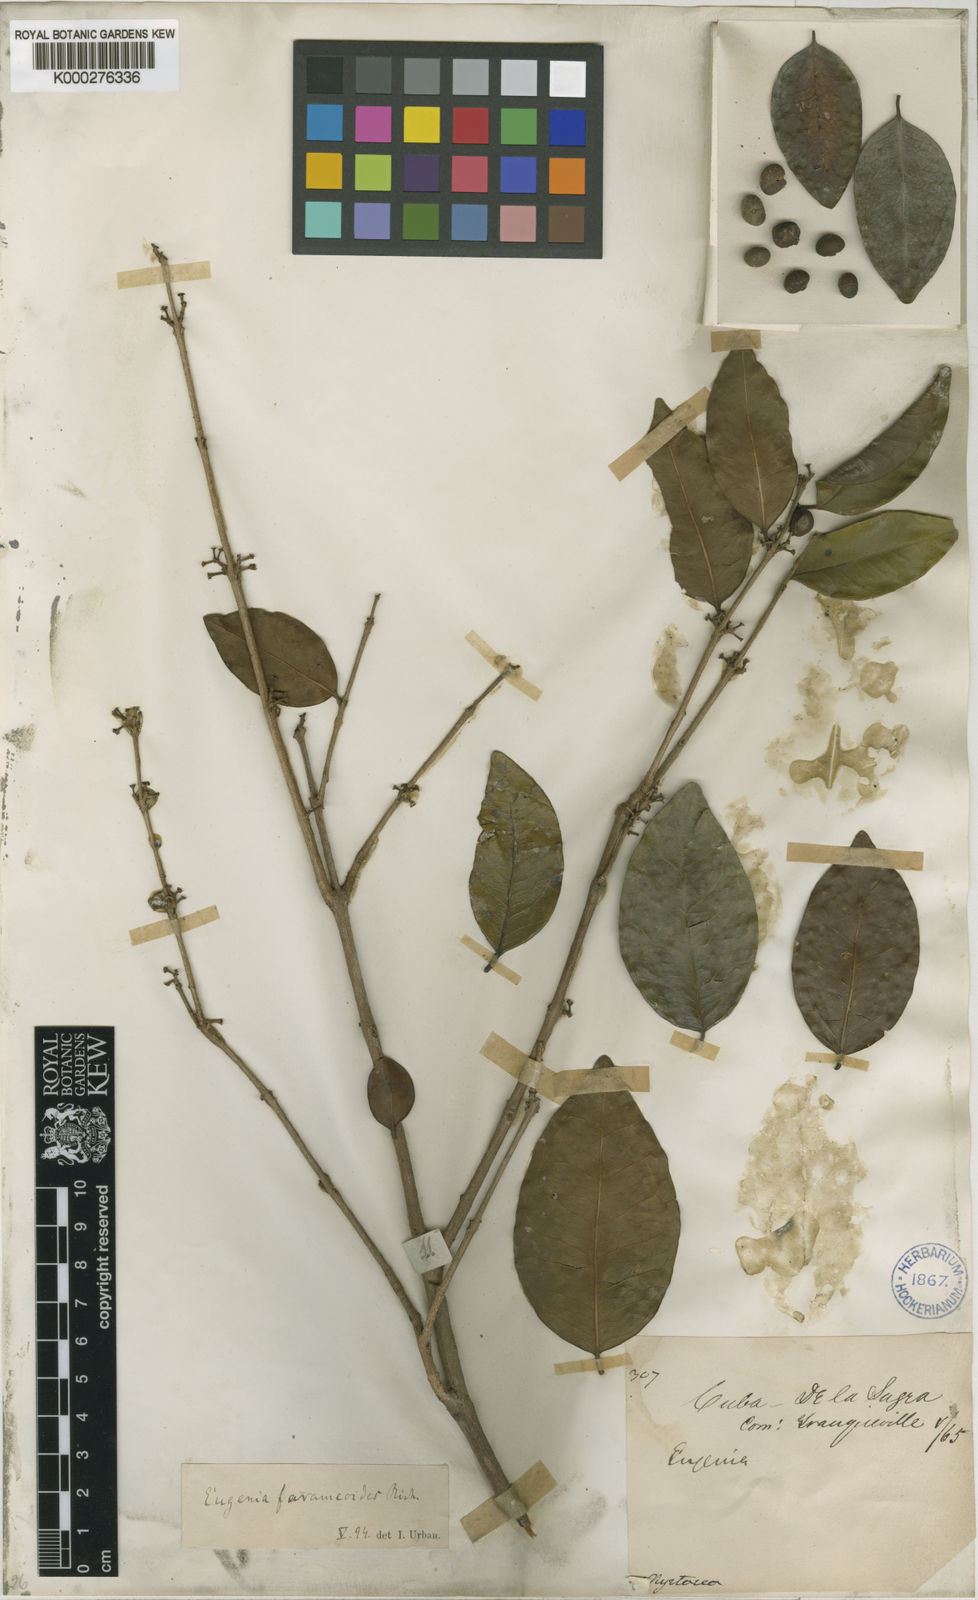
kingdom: Plantae
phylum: Tracheophyta
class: Magnoliopsida
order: Myrtales
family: Myrtaceae
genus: Eugenia
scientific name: Eugenia farameoides
